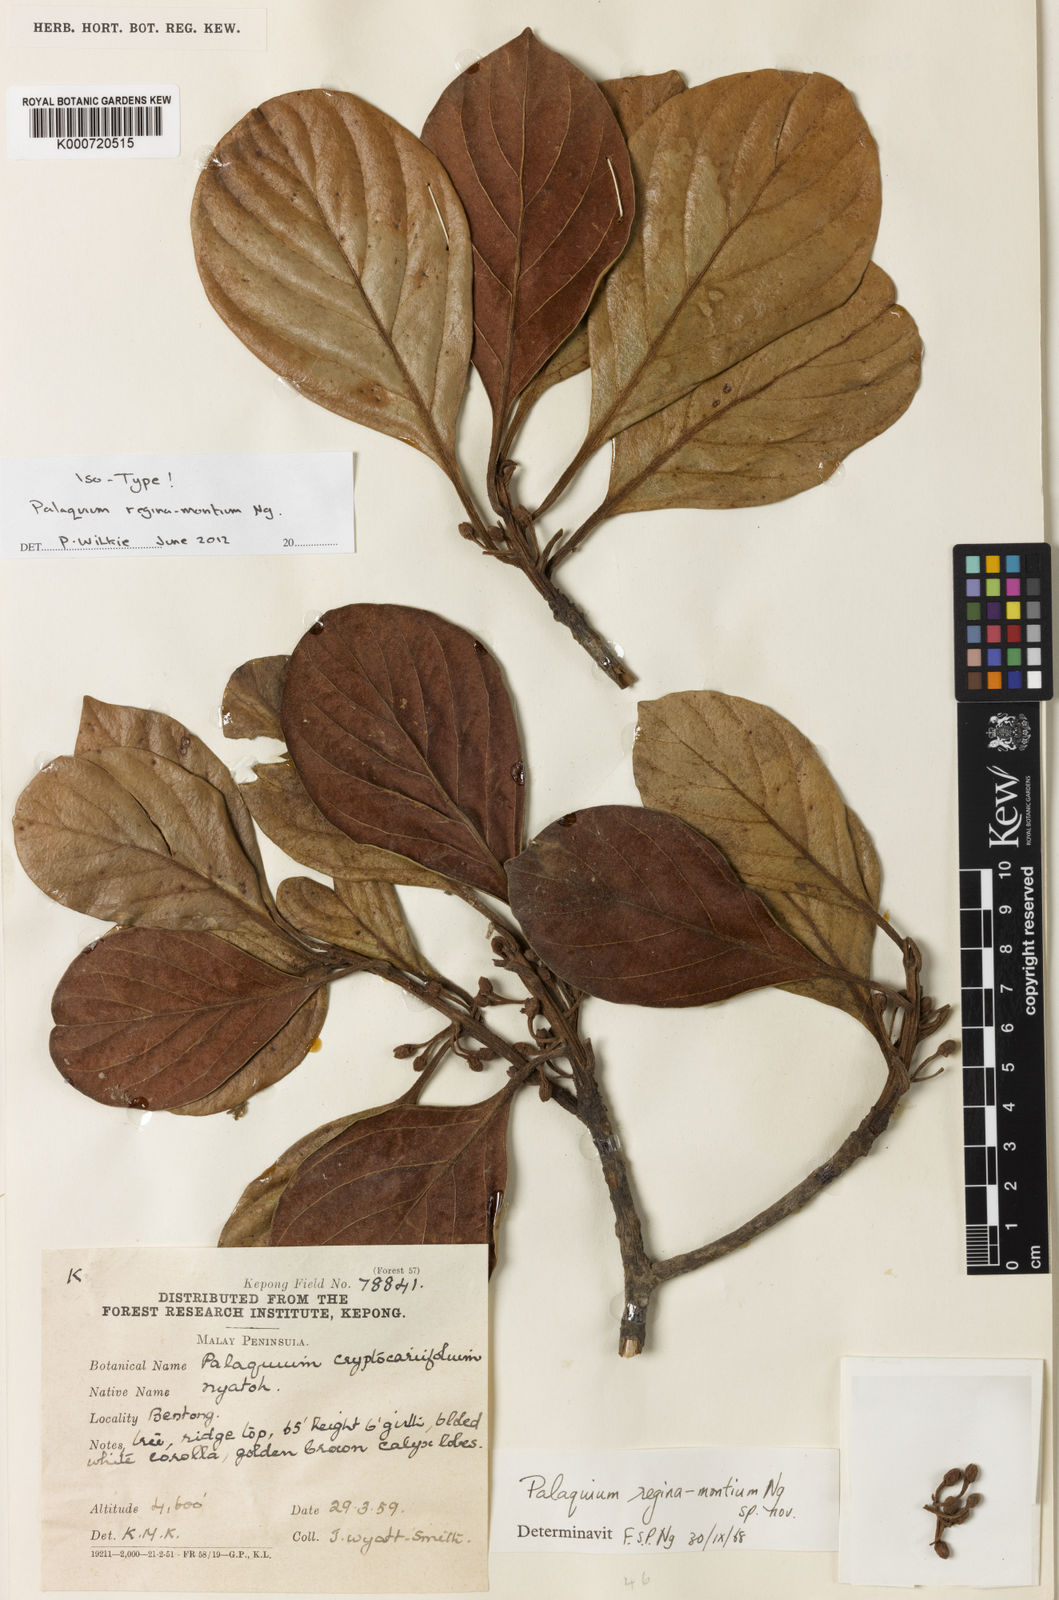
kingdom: Plantae
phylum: Tracheophyta
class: Magnoliopsida
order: Ericales
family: Sapotaceae
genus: Palaquium
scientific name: Palaquium regina-montium
